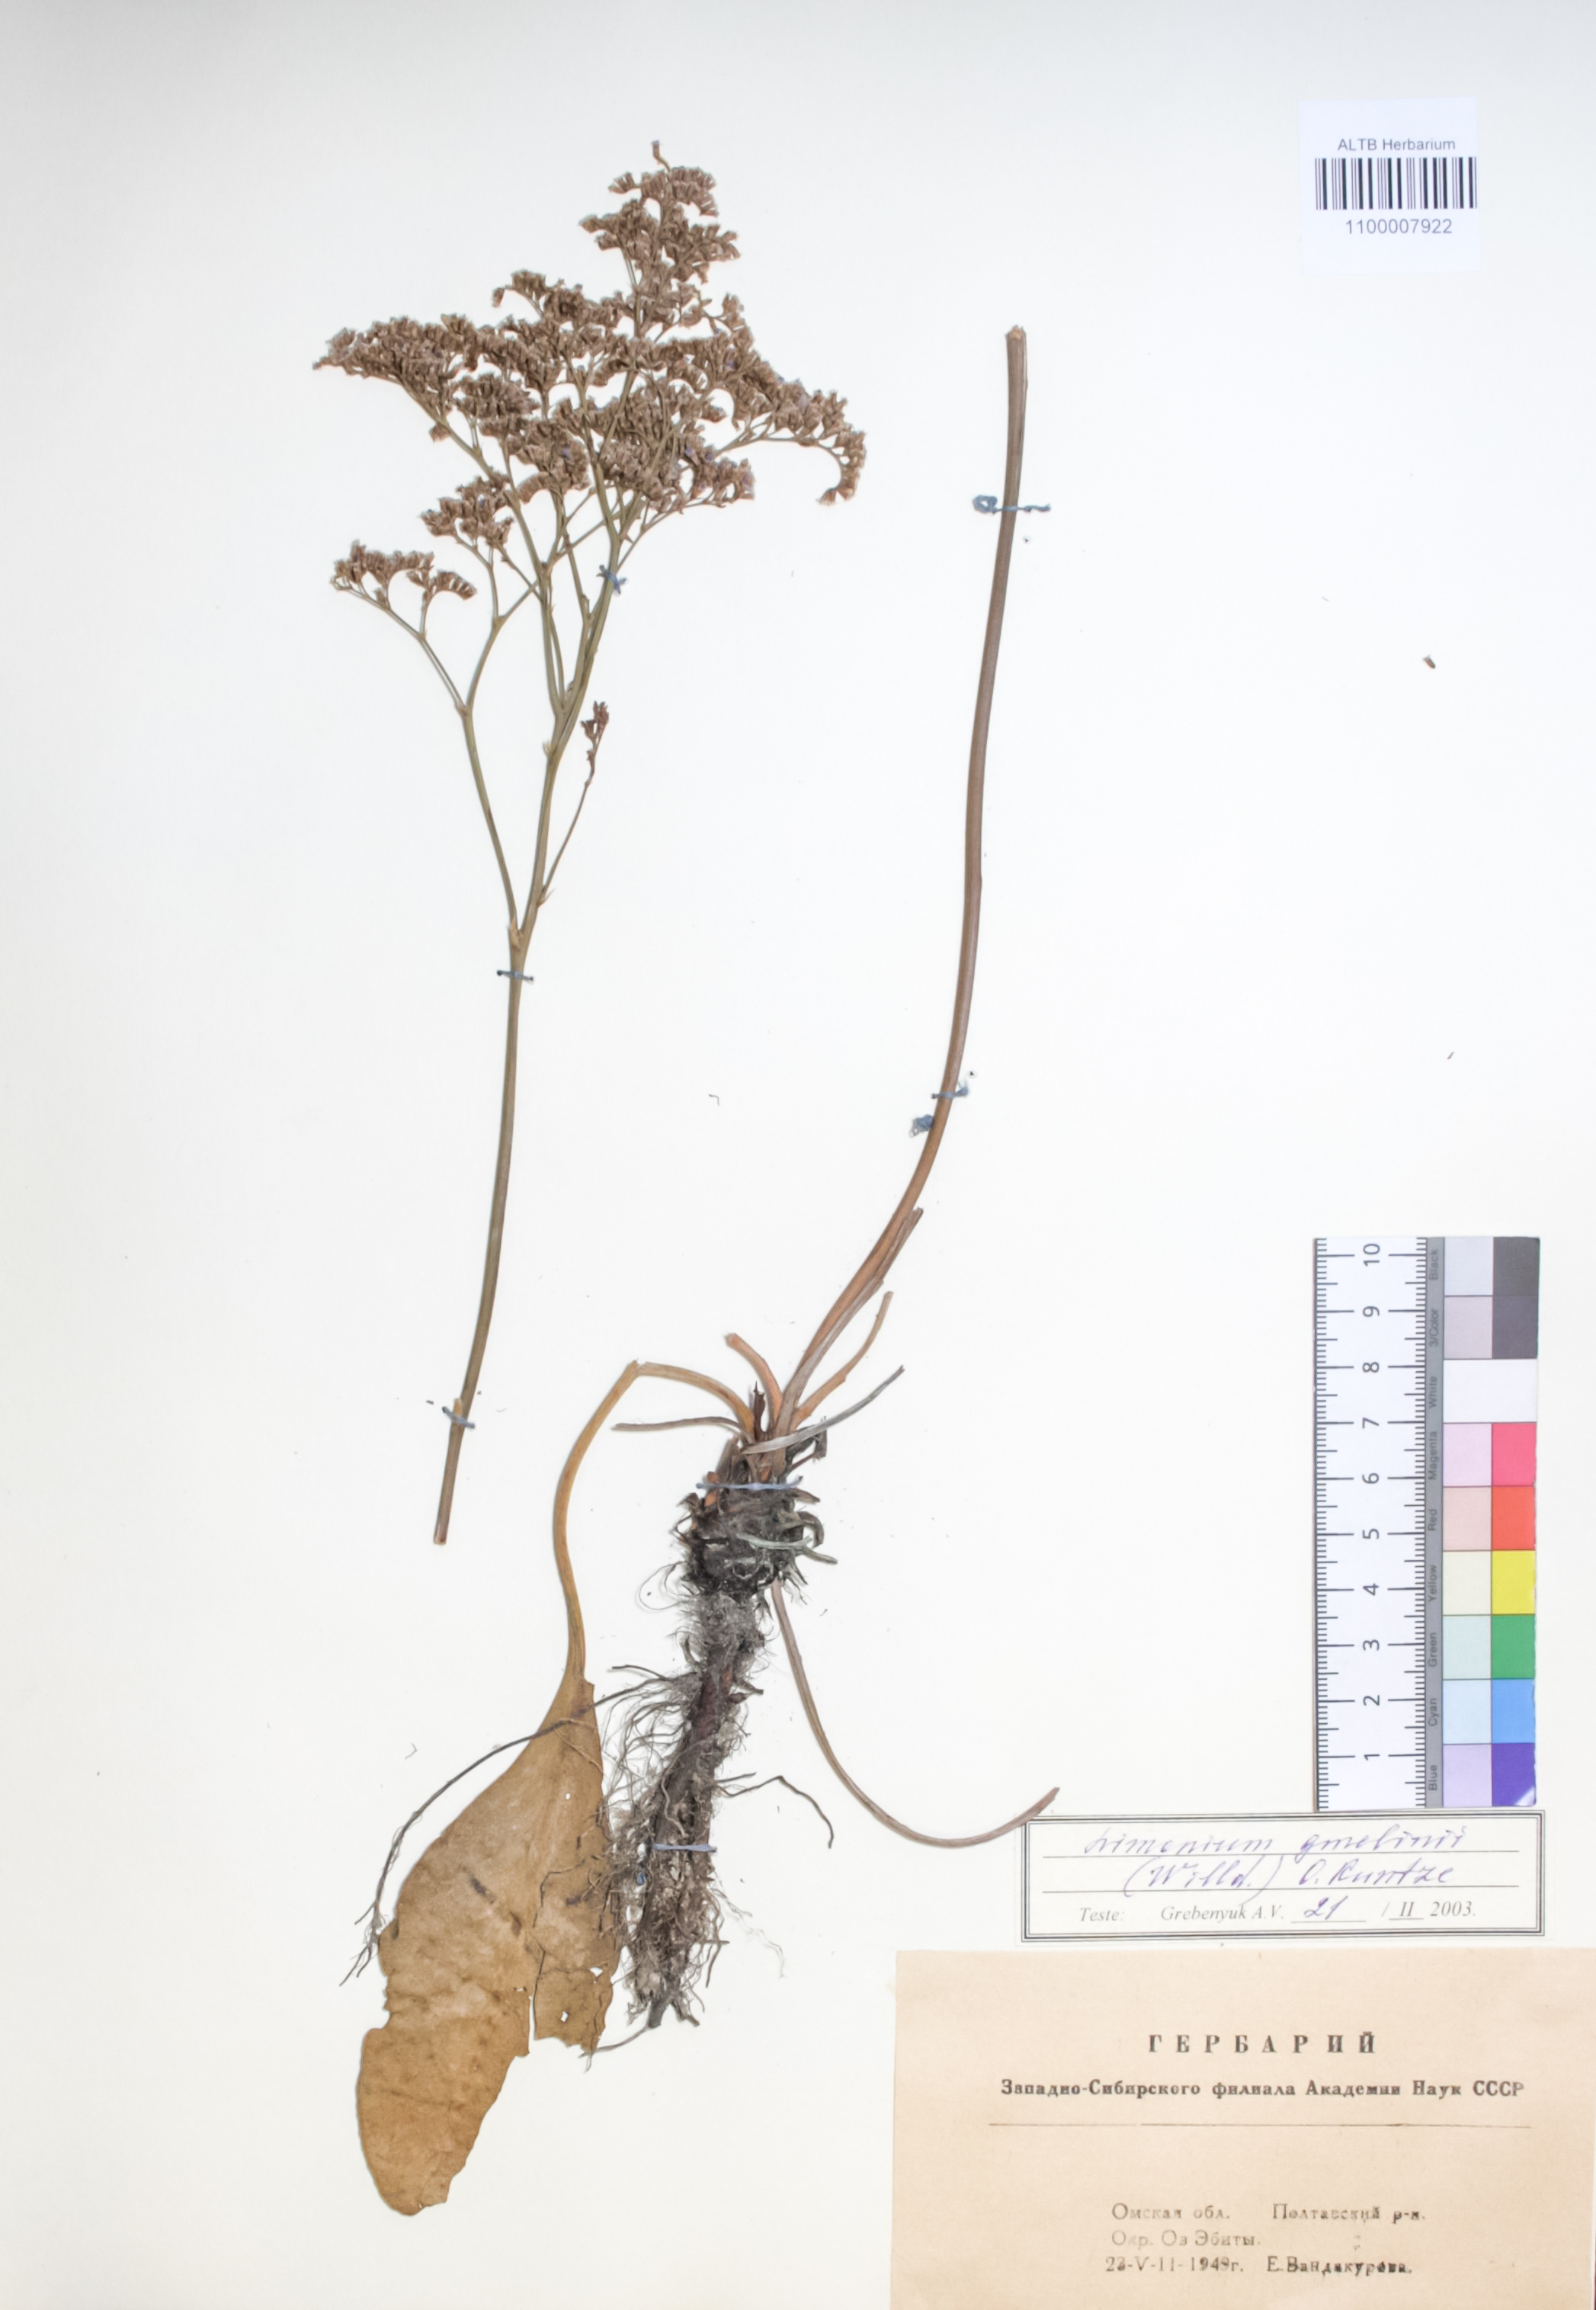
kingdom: Plantae
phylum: Tracheophyta
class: Magnoliopsida
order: Caryophyllales
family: Plumbaginaceae
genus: Limonium
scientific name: Limonium gmelini
